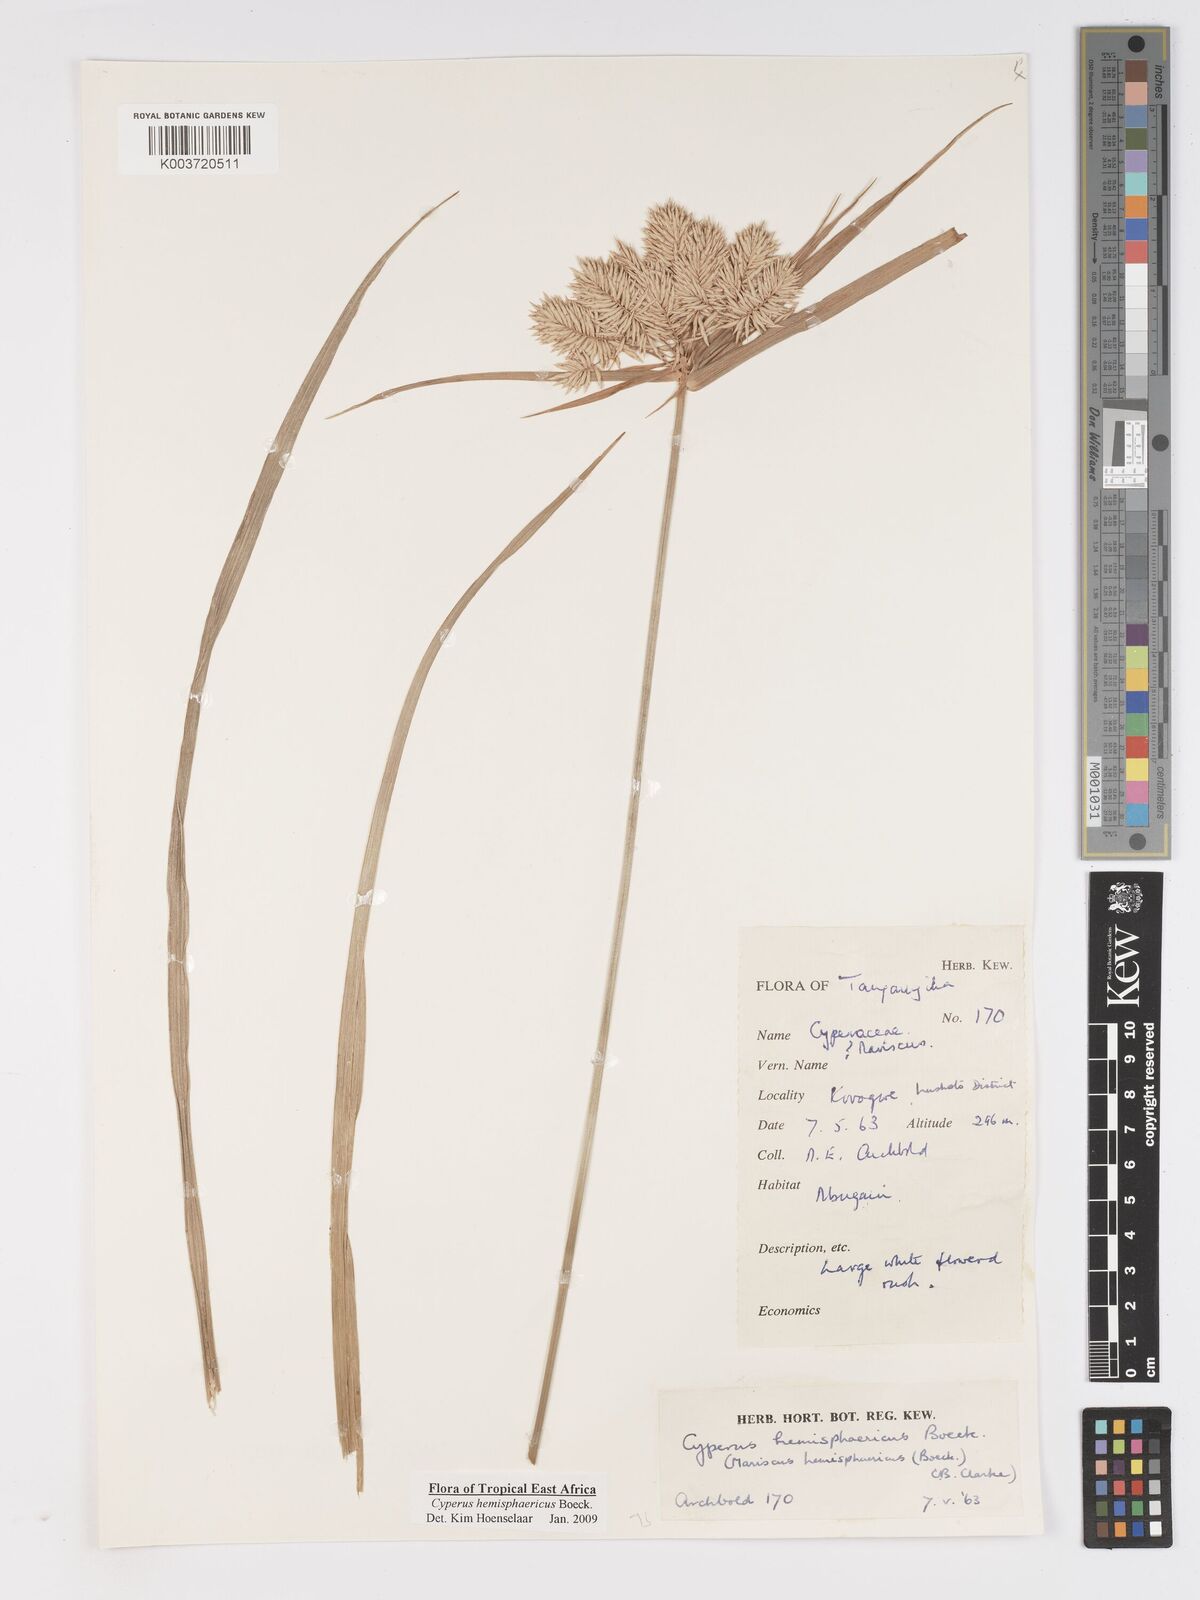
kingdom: Plantae
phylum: Tracheophyta
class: Liliopsida
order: Poales
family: Cyperaceae
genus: Cyperus
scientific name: Cyperus hemisphaericus
